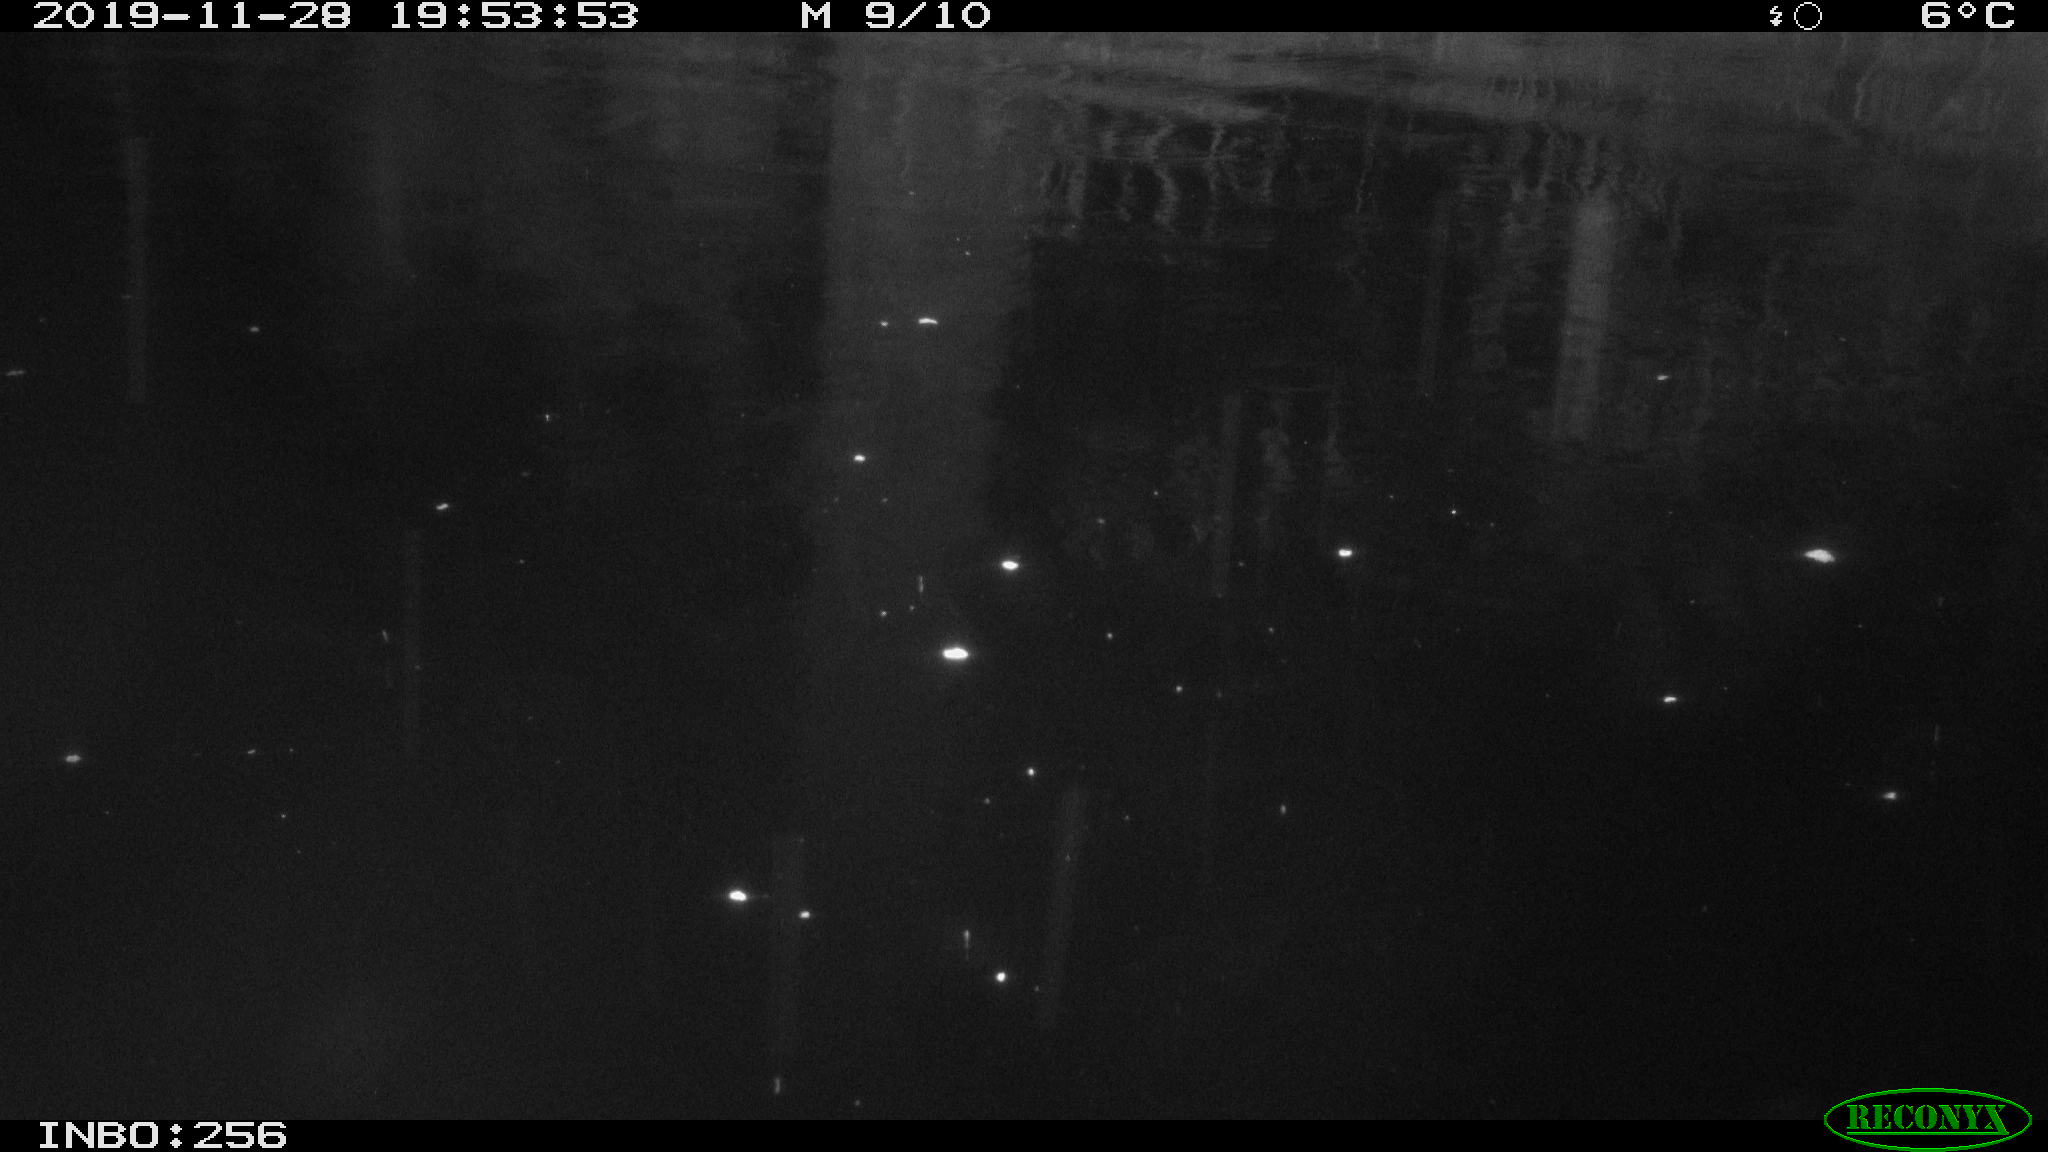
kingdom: Animalia
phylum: Chordata
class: Mammalia
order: Rodentia
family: Cricetidae
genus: Ondatra
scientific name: Ondatra zibethicus
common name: Muskrat
